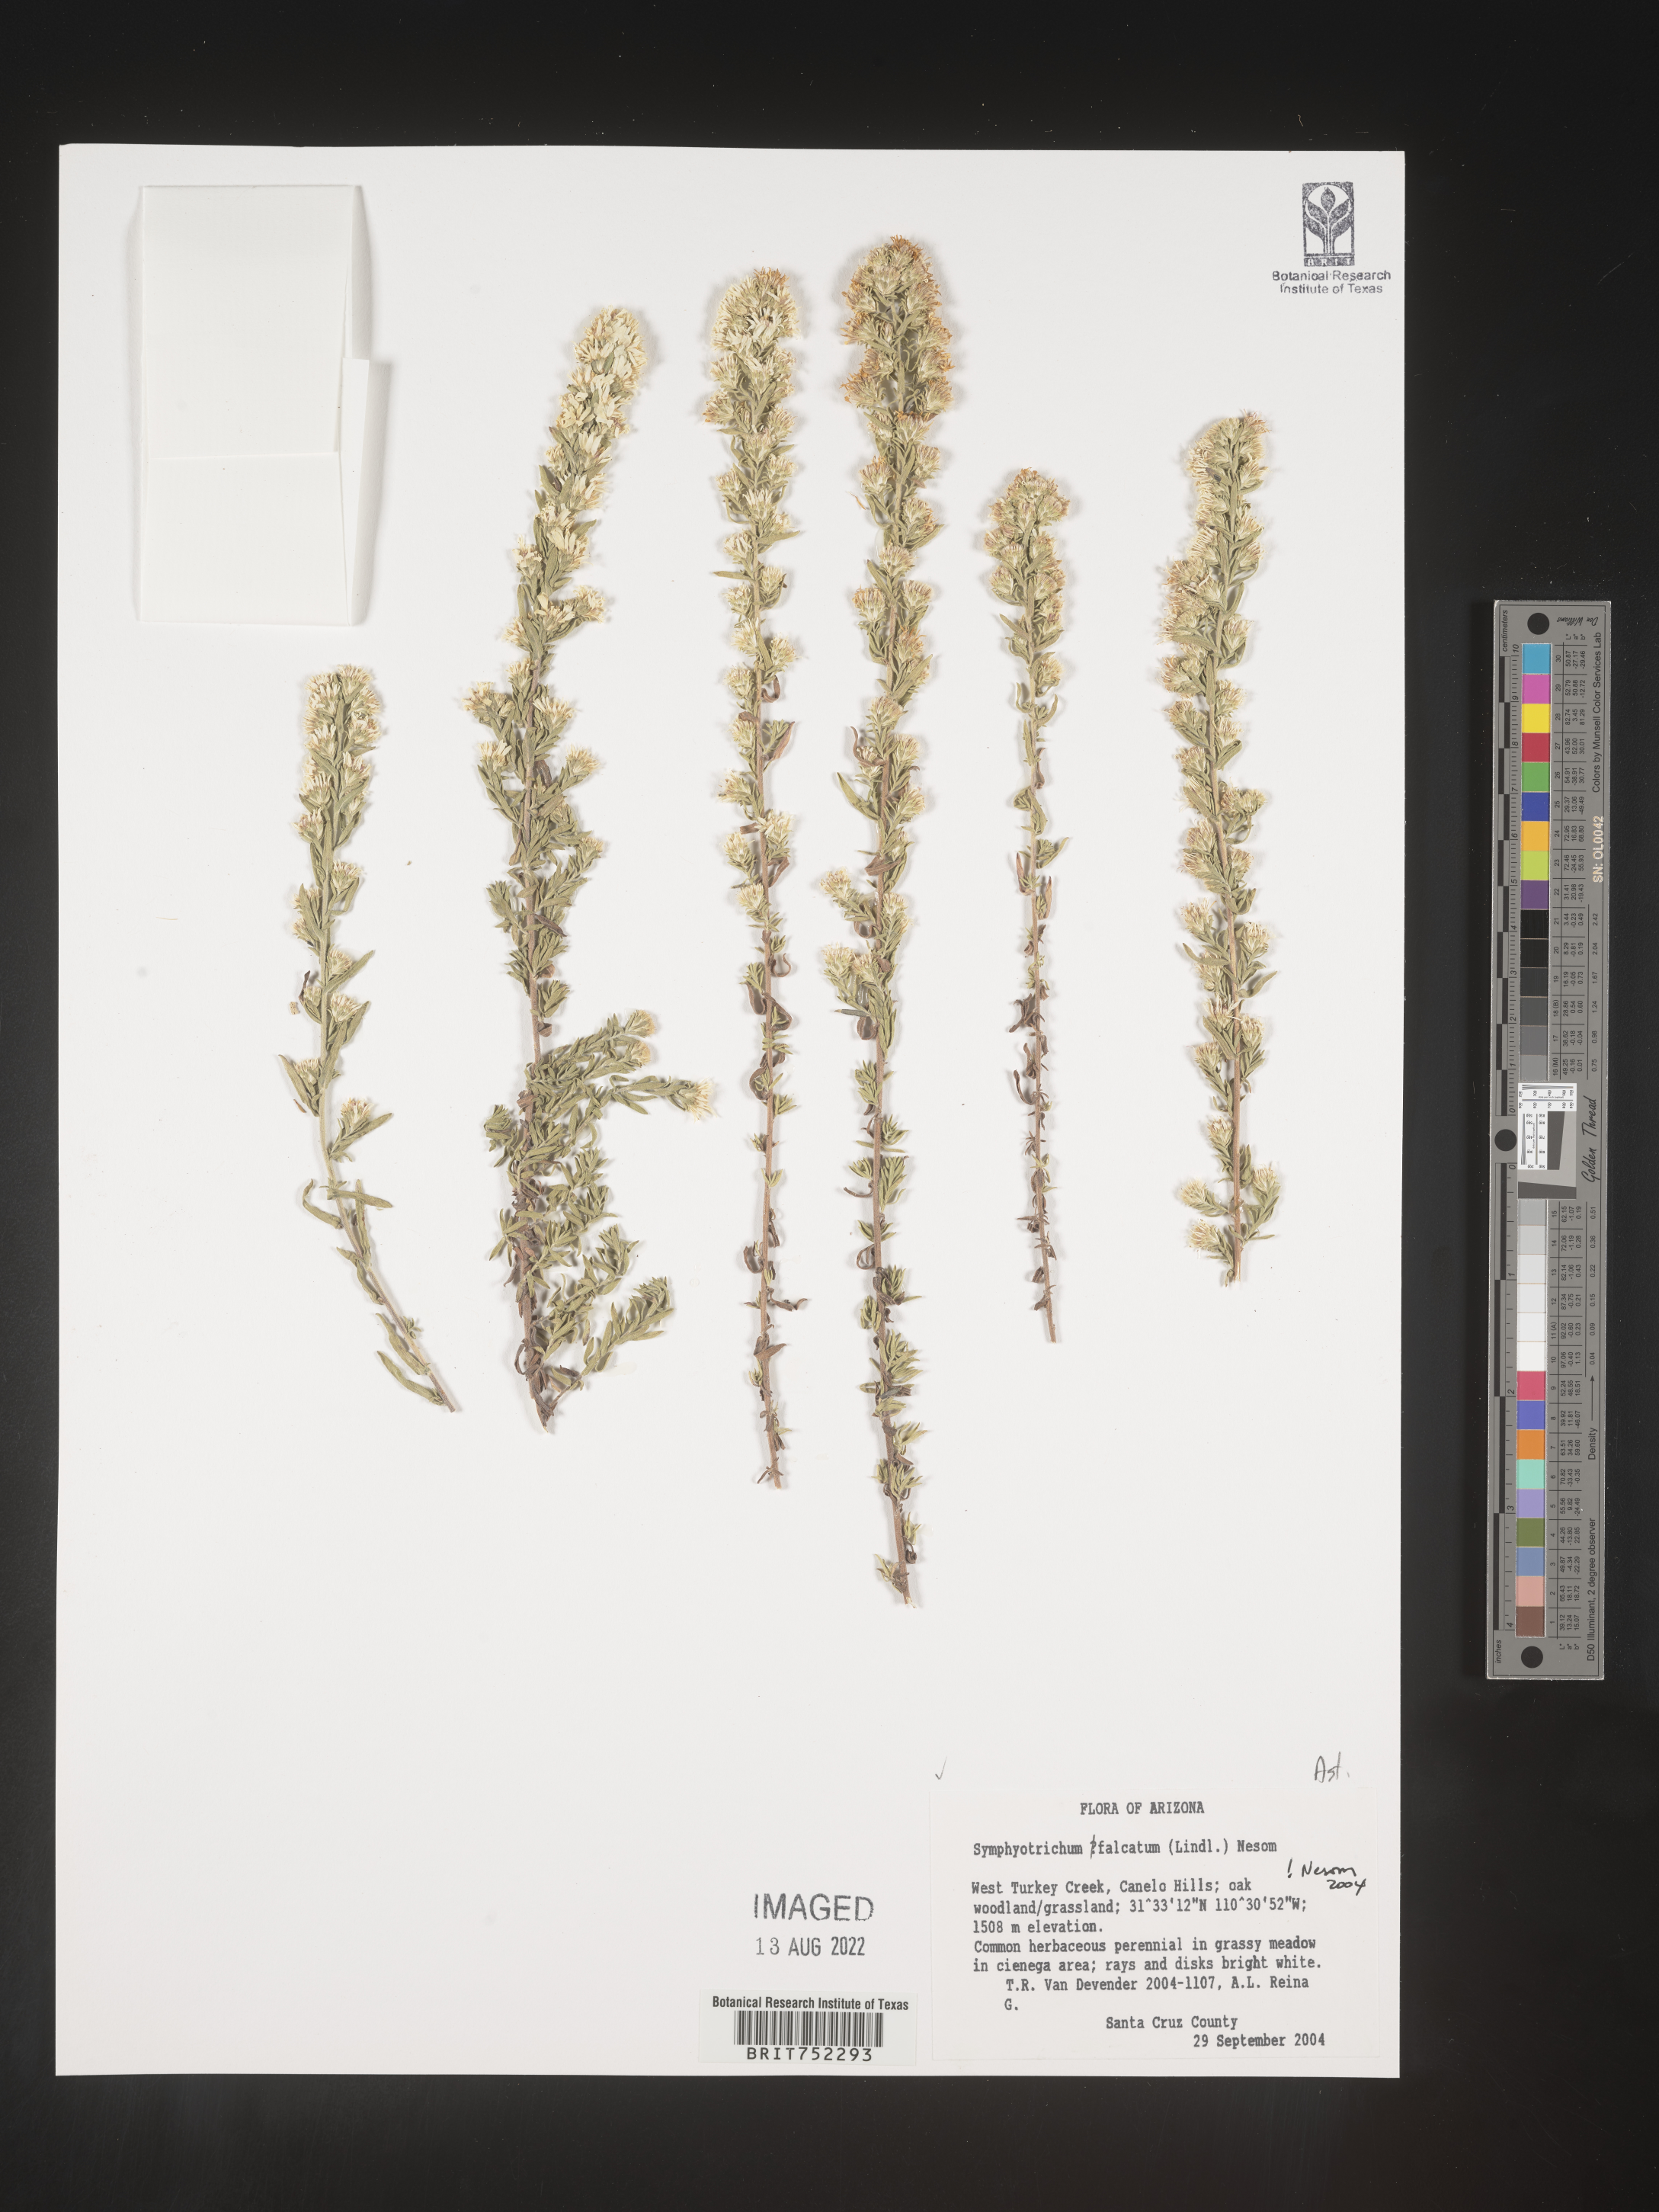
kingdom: Plantae
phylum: Tracheophyta
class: Magnoliopsida
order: Asterales
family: Asteraceae
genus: Symphyotrichum
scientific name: Symphyotrichum falcatum
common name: Creeping white prairie aster
